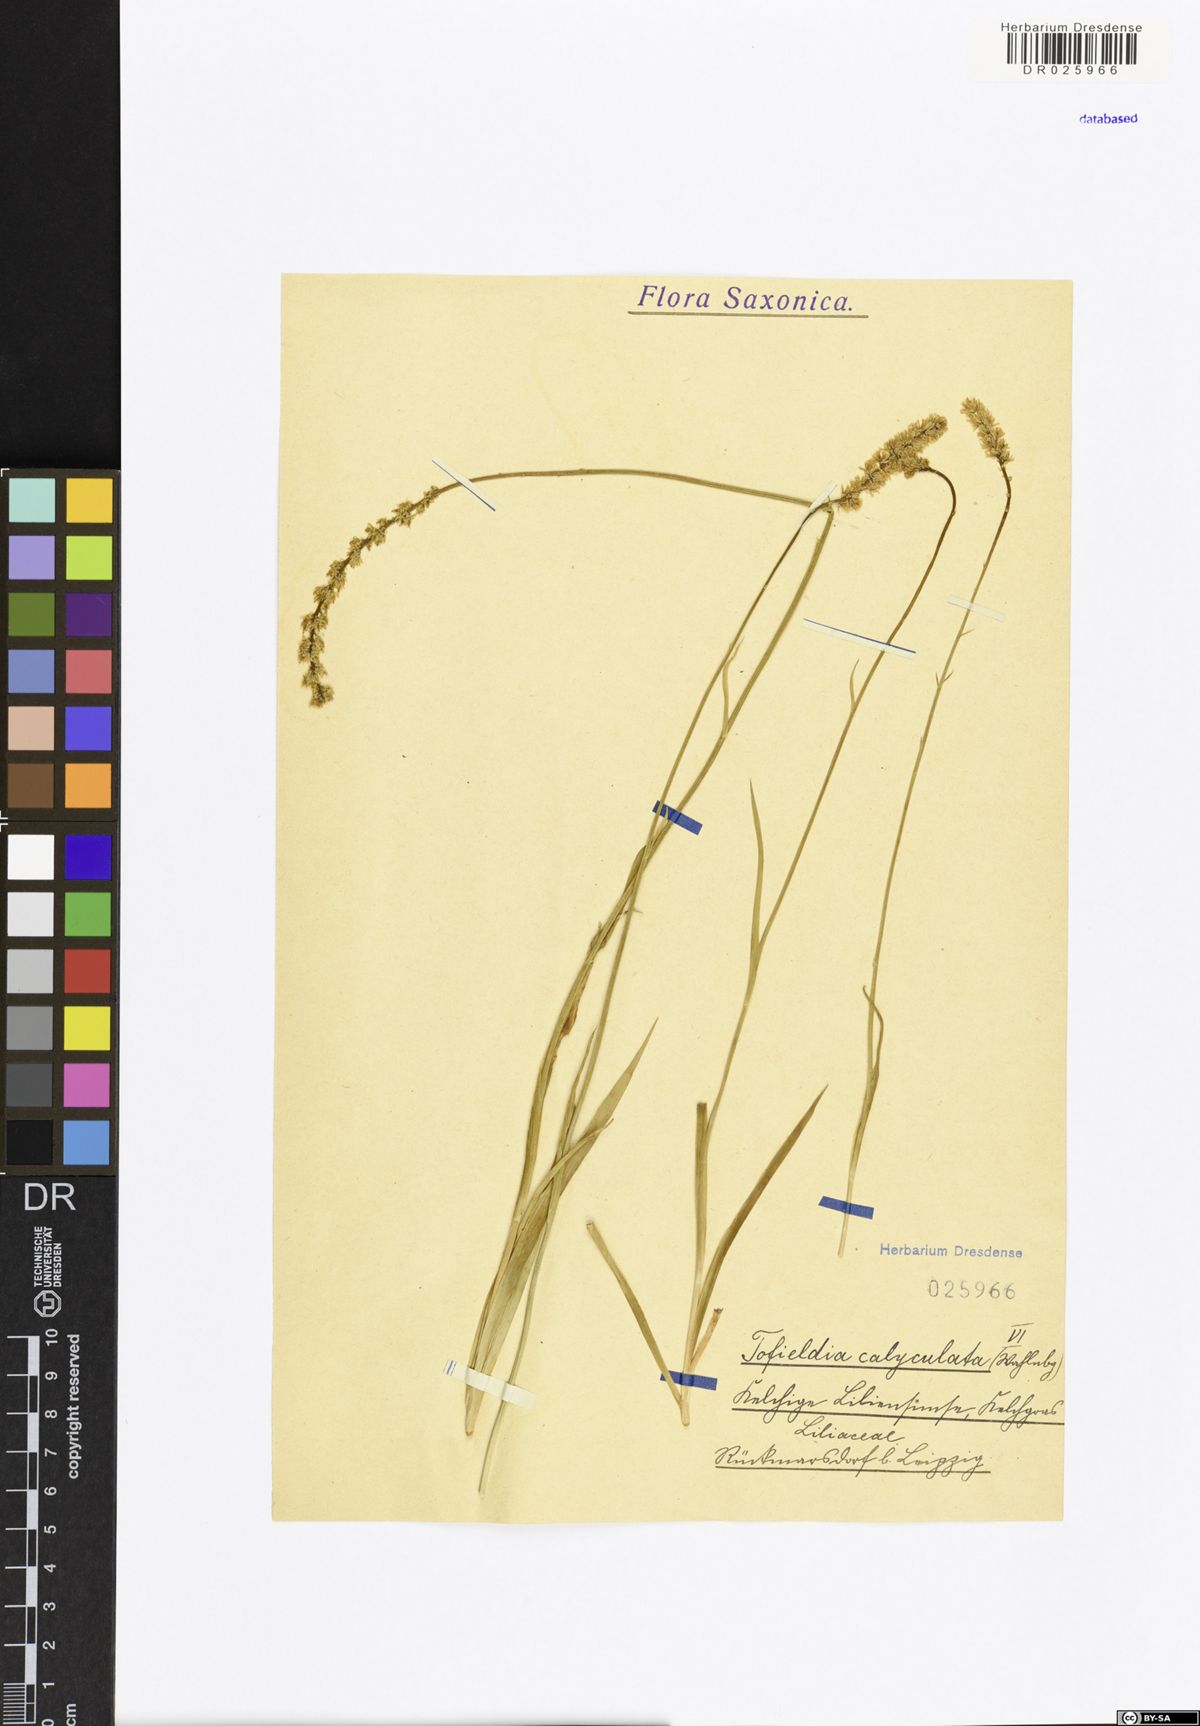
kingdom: Plantae
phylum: Tracheophyta
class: Liliopsida
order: Alismatales
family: Tofieldiaceae
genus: Tofieldia
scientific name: Tofieldia calyculata
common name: German-asphodel
